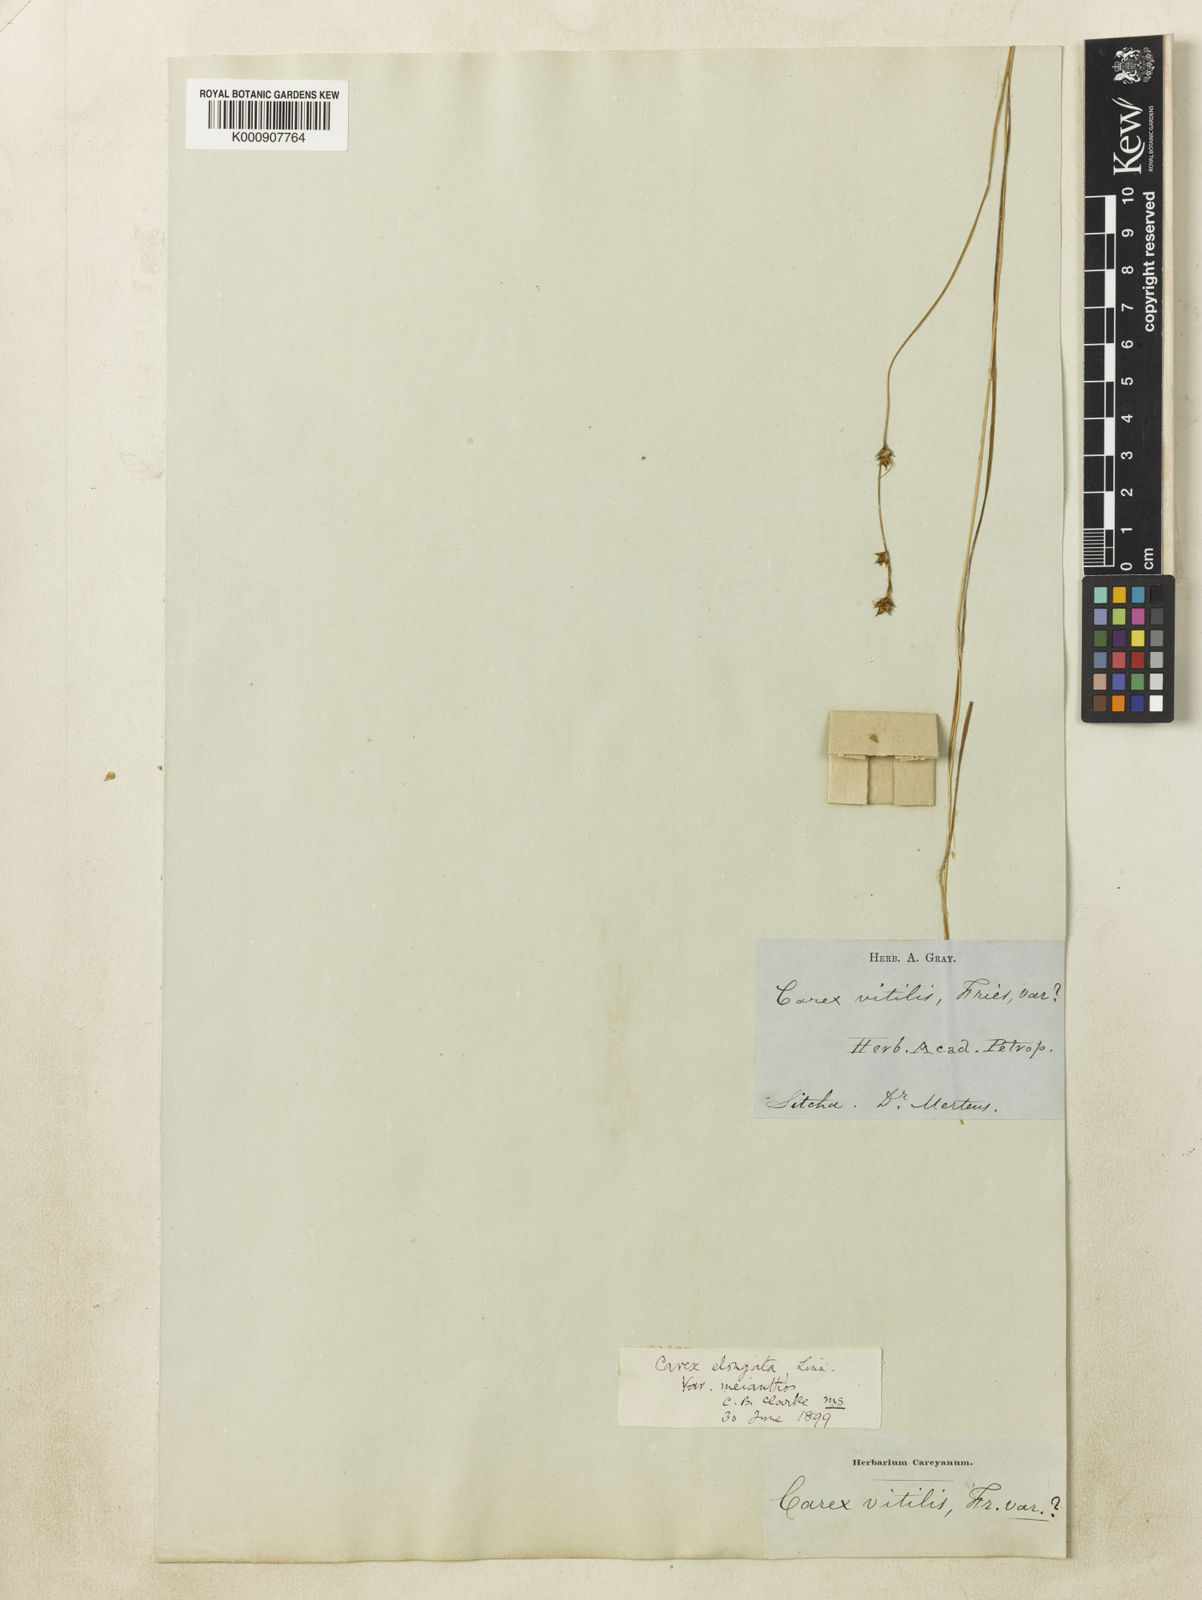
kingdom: Plantae
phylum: Tracheophyta
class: Liliopsida
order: Poales
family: Cyperaceae
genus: Carex
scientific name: Carex laeviculmis
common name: Smooth sedge
